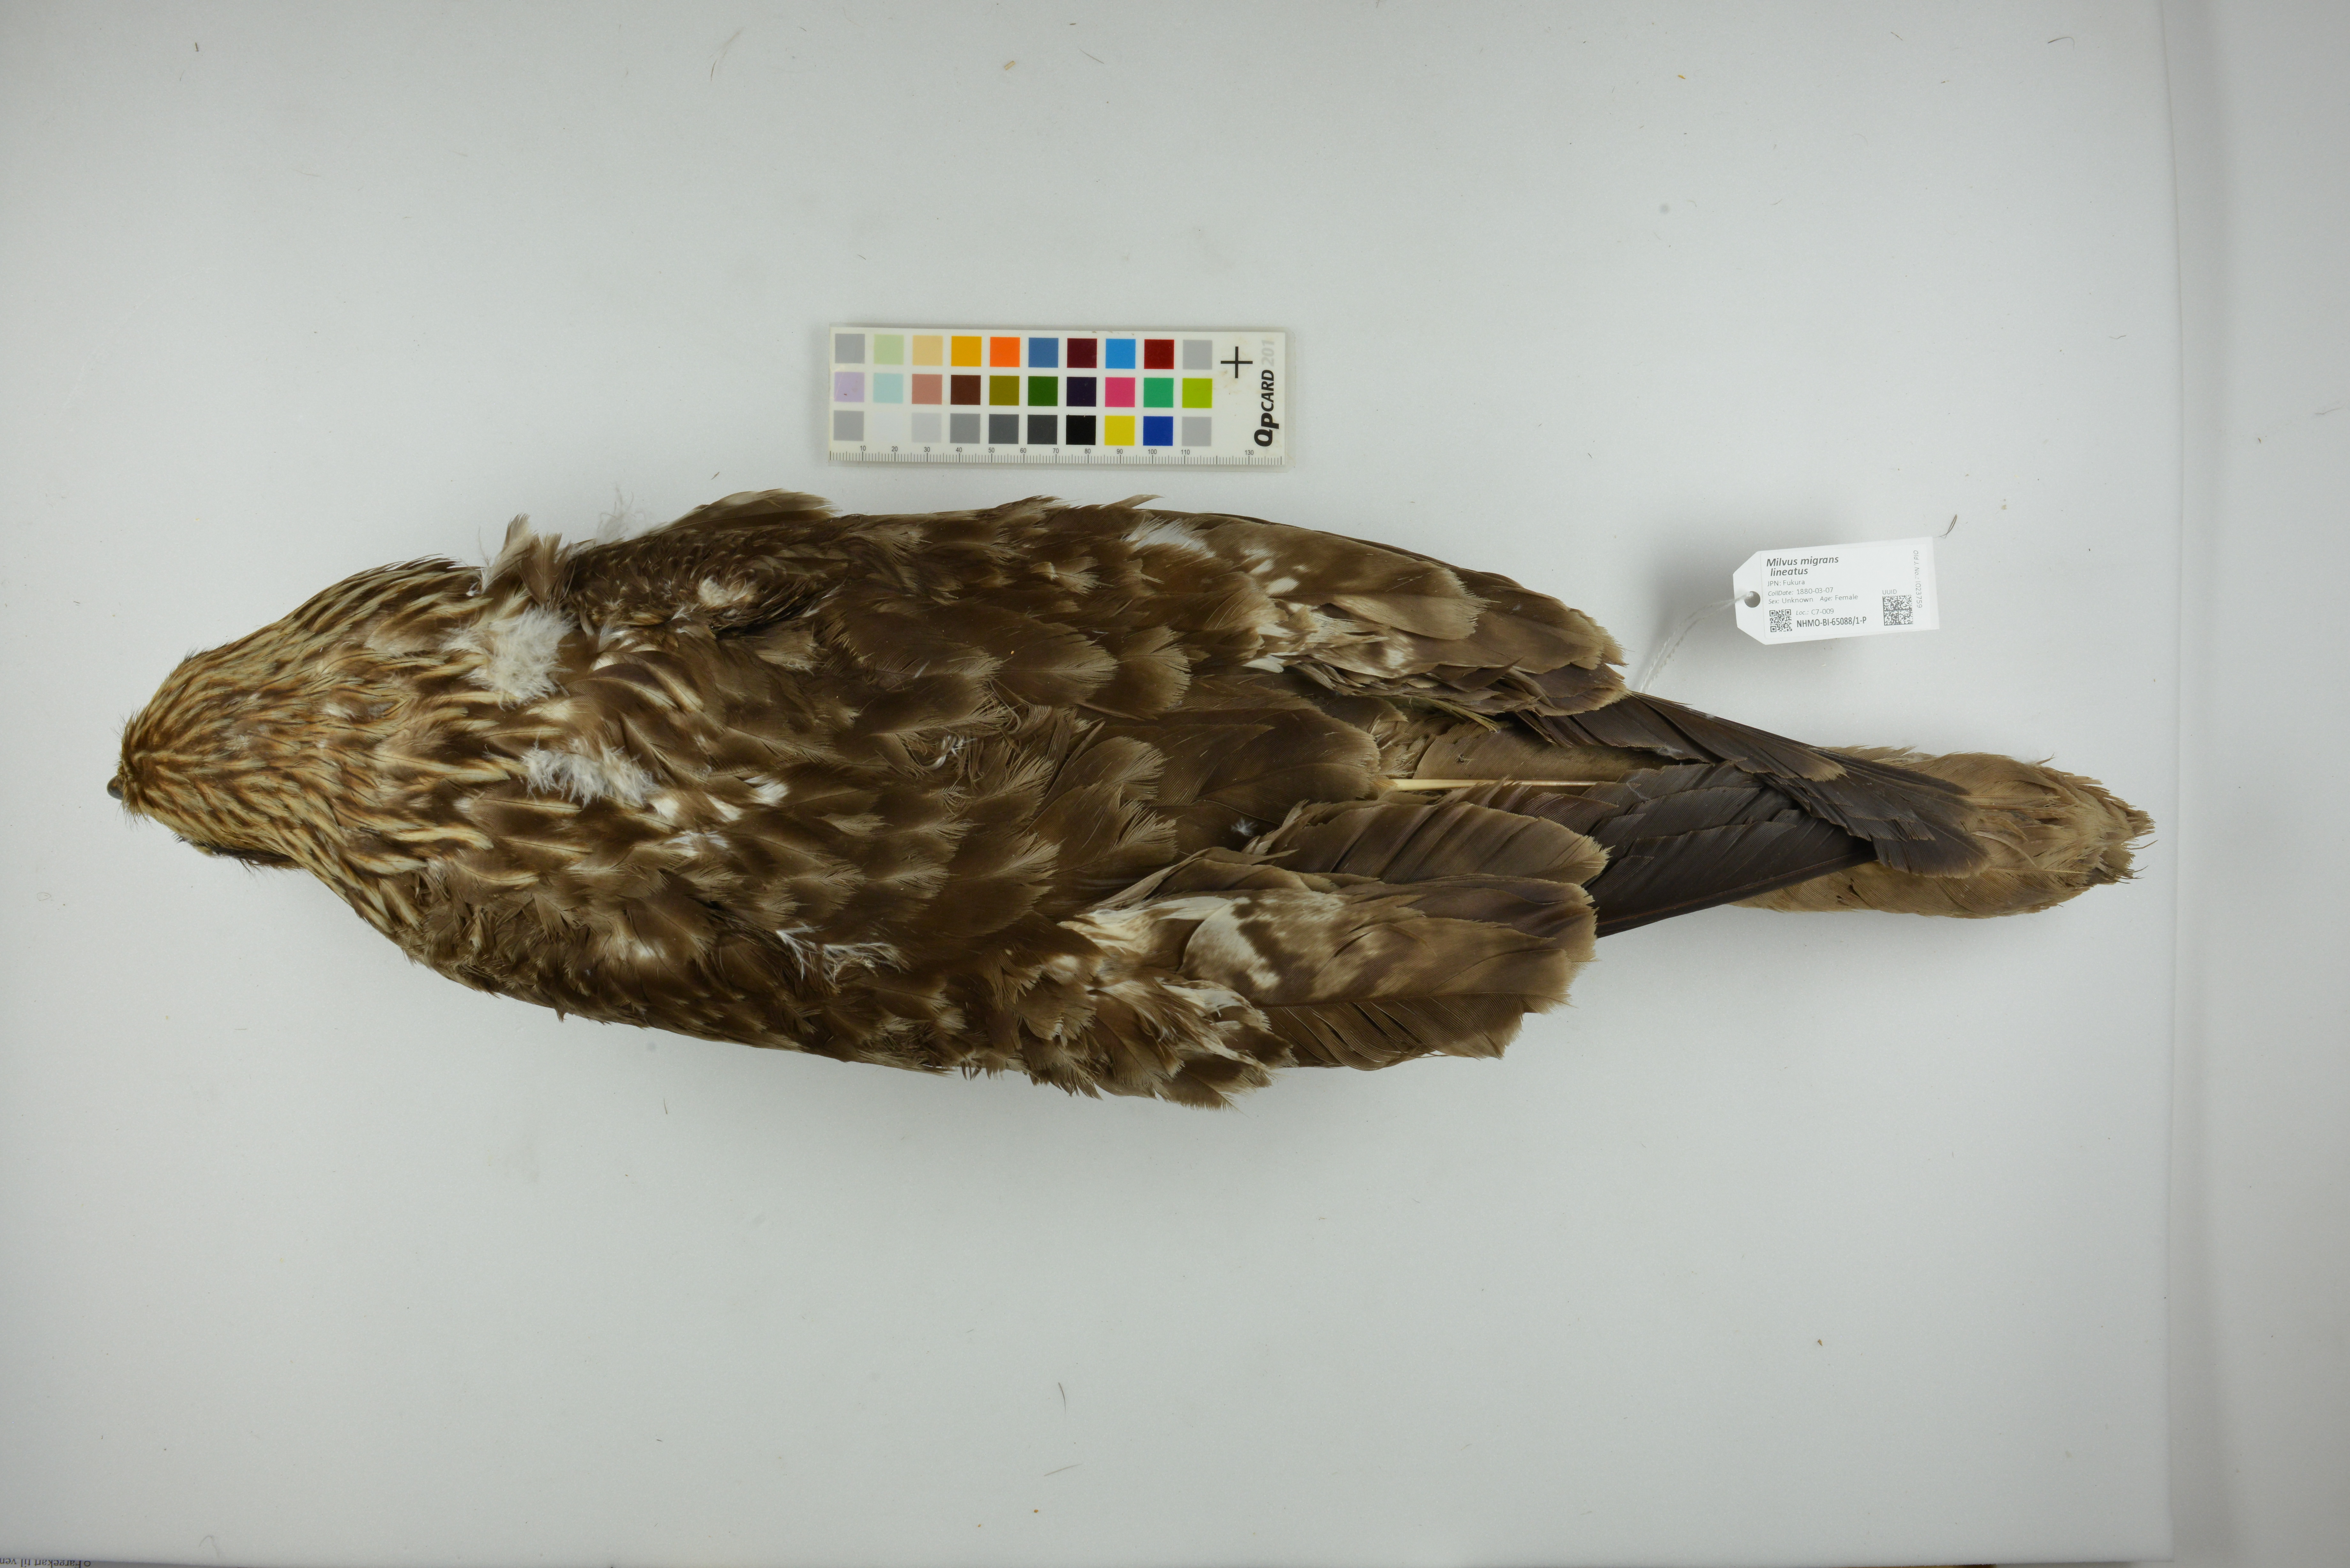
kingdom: Animalia
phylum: Chordata
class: Aves
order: Accipitriformes
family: Accipitridae
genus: Milvus
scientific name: Milvus migrans
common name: Black kite
